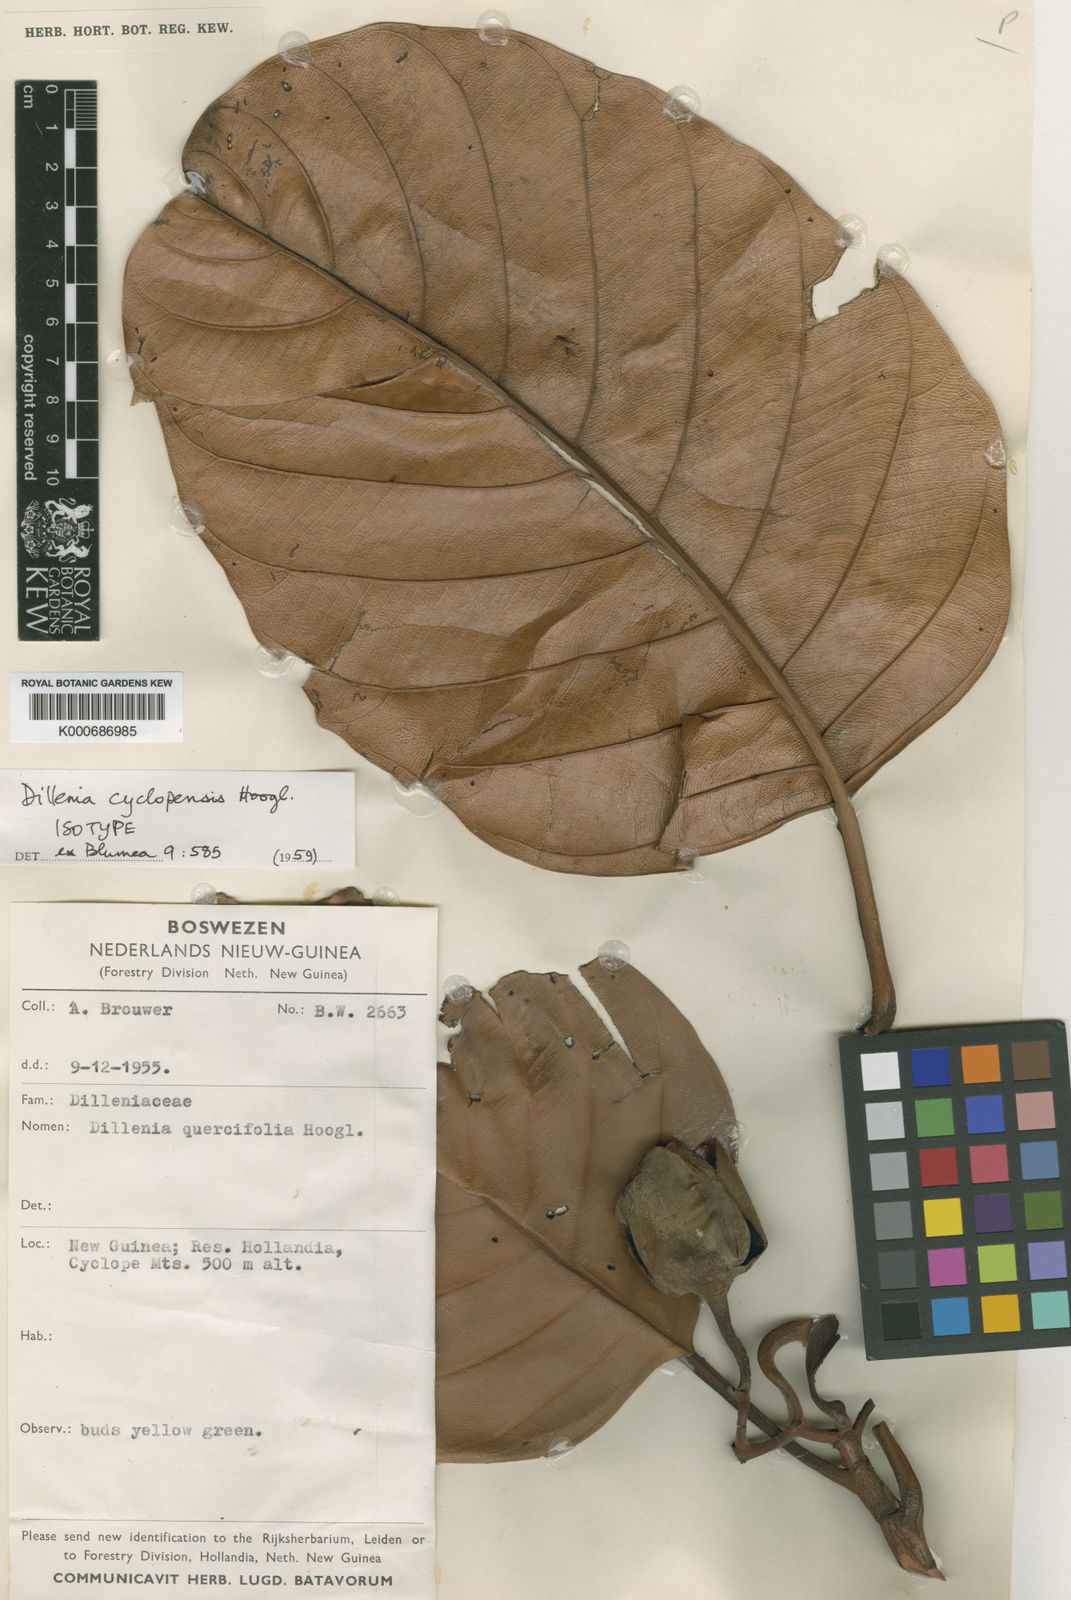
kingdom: Plantae
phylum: Tracheophyta
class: Magnoliopsida
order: Dilleniales
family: Dilleniaceae
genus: Dillenia
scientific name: Dillenia cyclopensis
